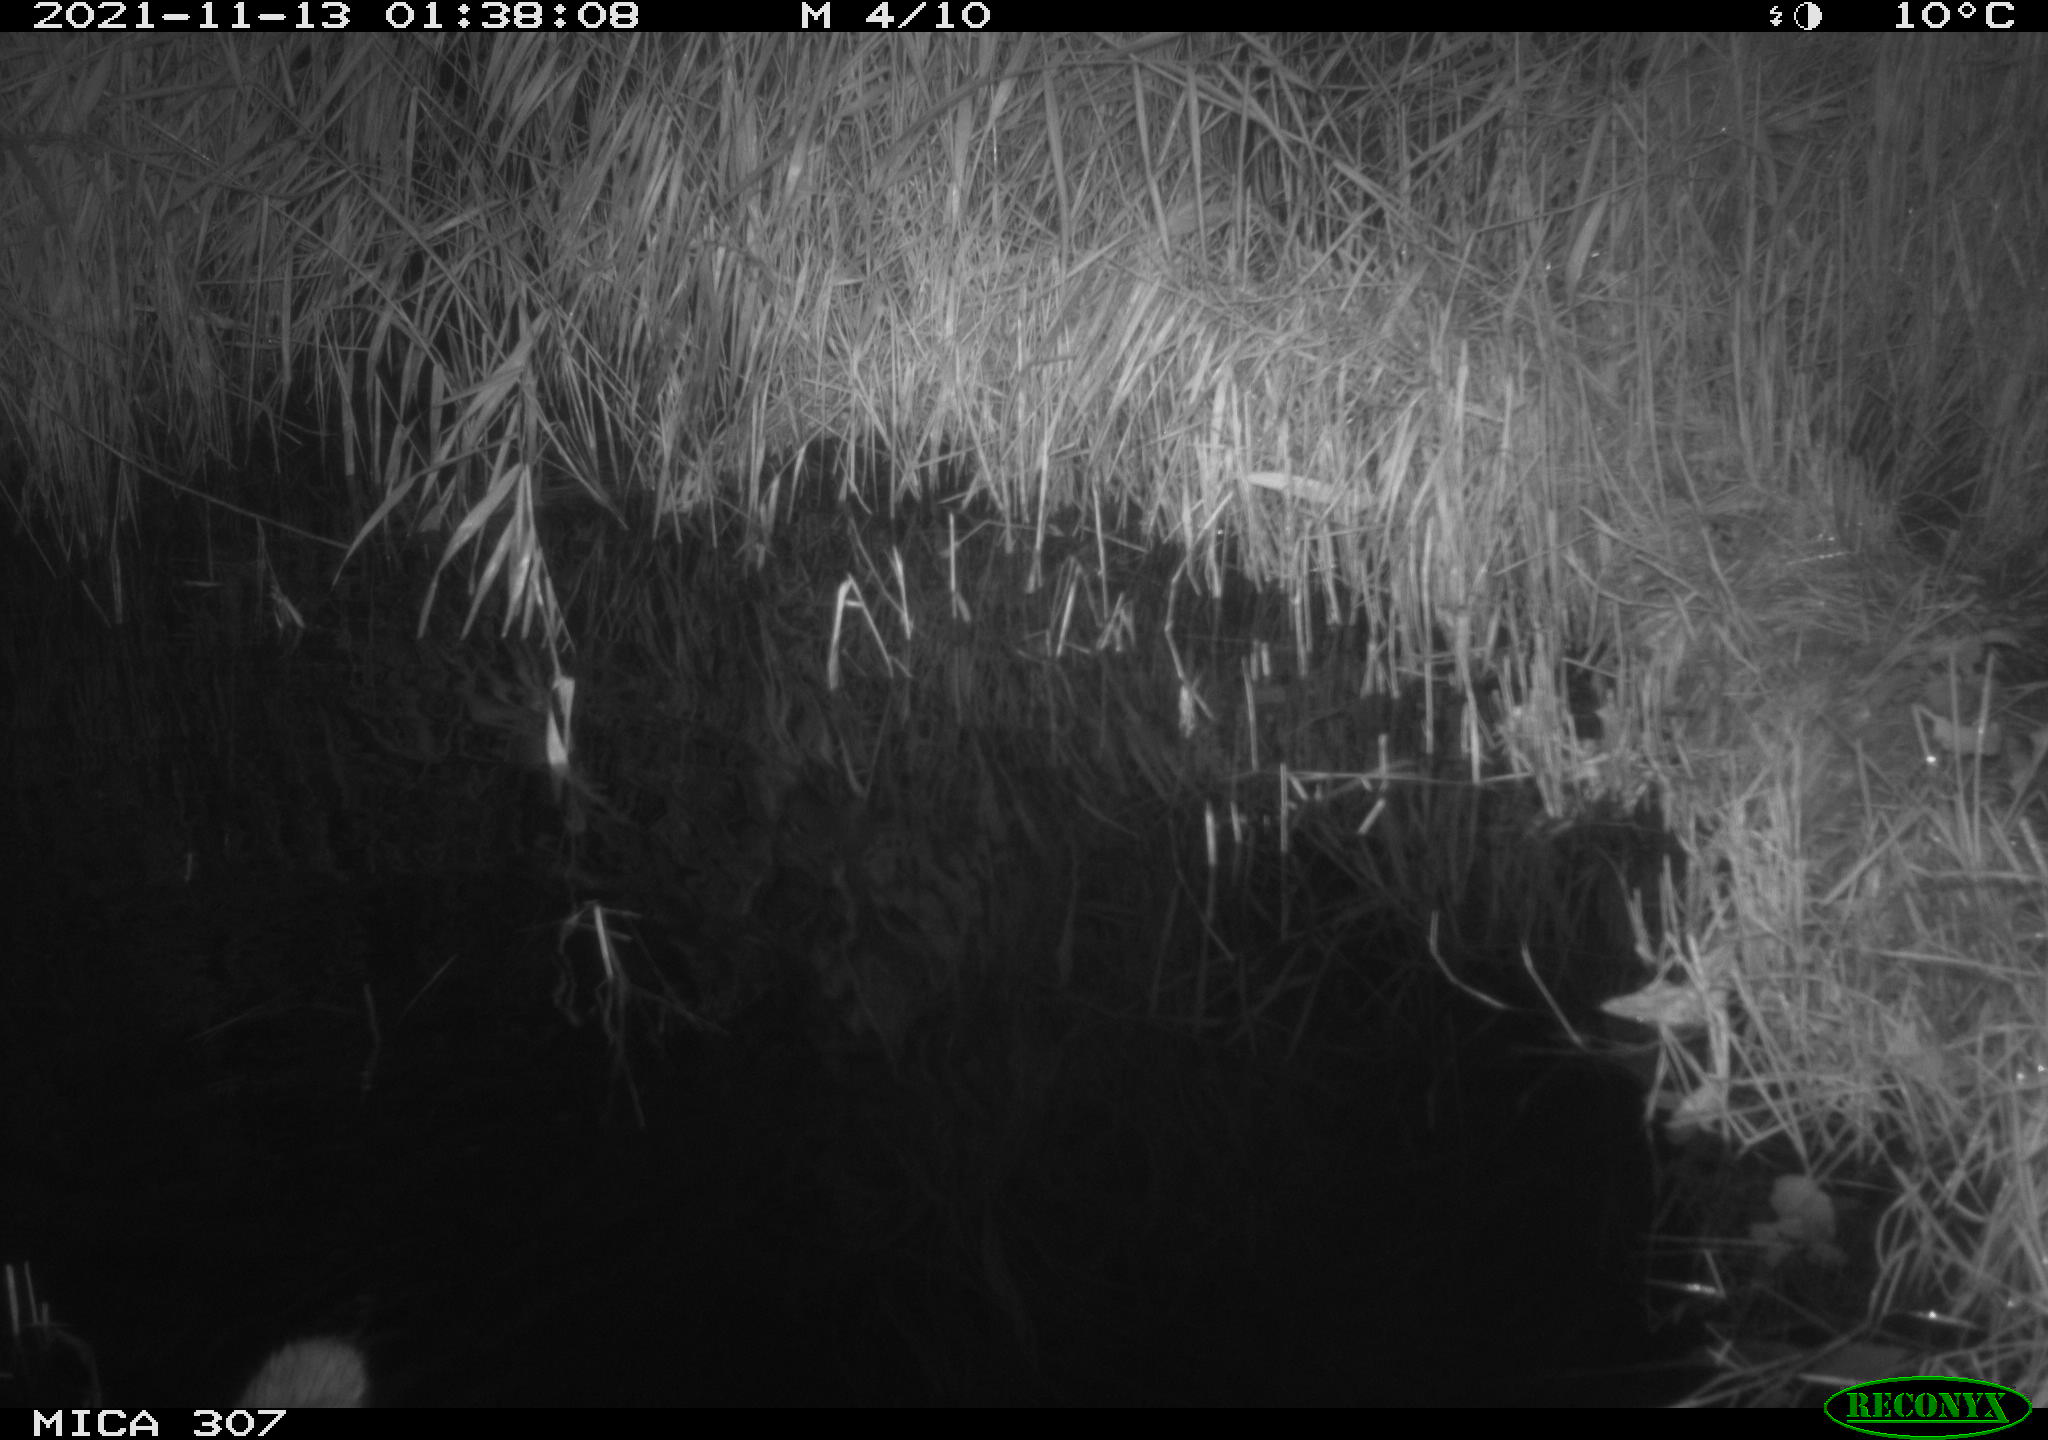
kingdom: Animalia
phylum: Chordata
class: Mammalia
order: Rodentia
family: Muridae
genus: Rattus
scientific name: Rattus norvegicus
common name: Brown rat
